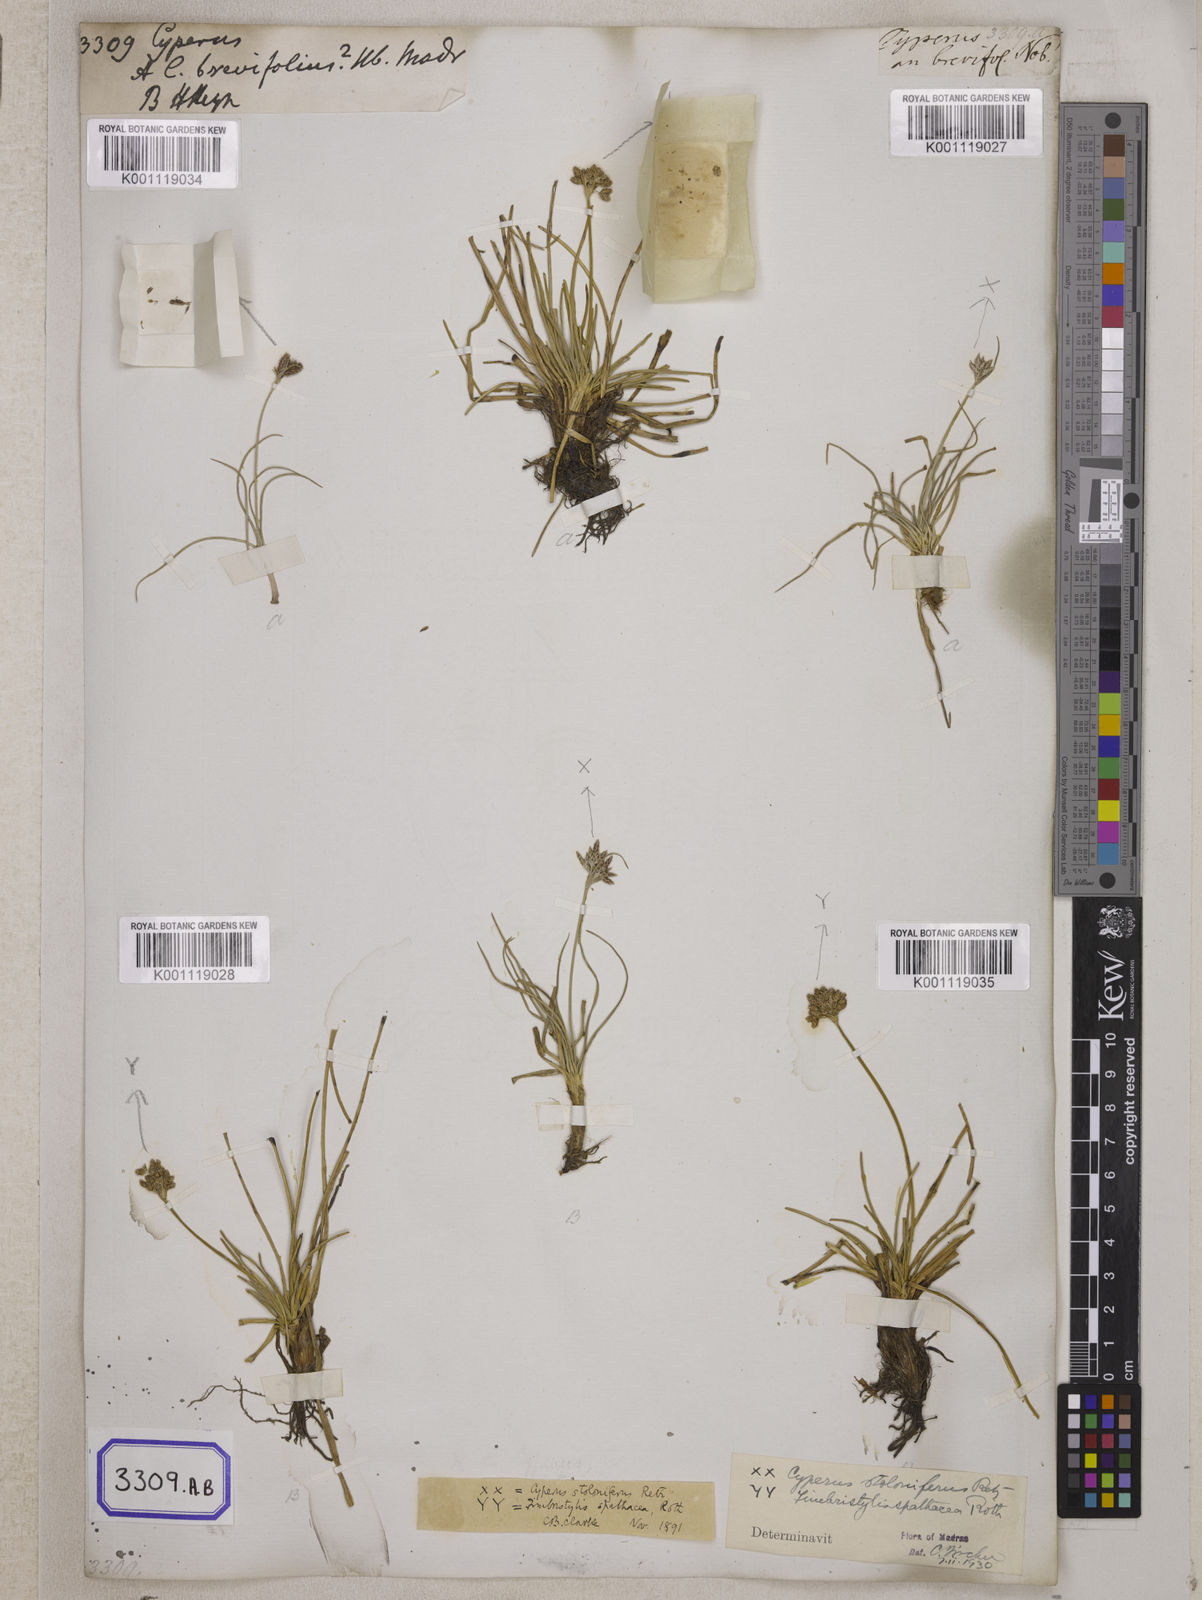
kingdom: Plantae
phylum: Tracheophyta
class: Liliopsida
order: Poales
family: Cyperaceae
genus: Cyperus
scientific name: Cyperus
